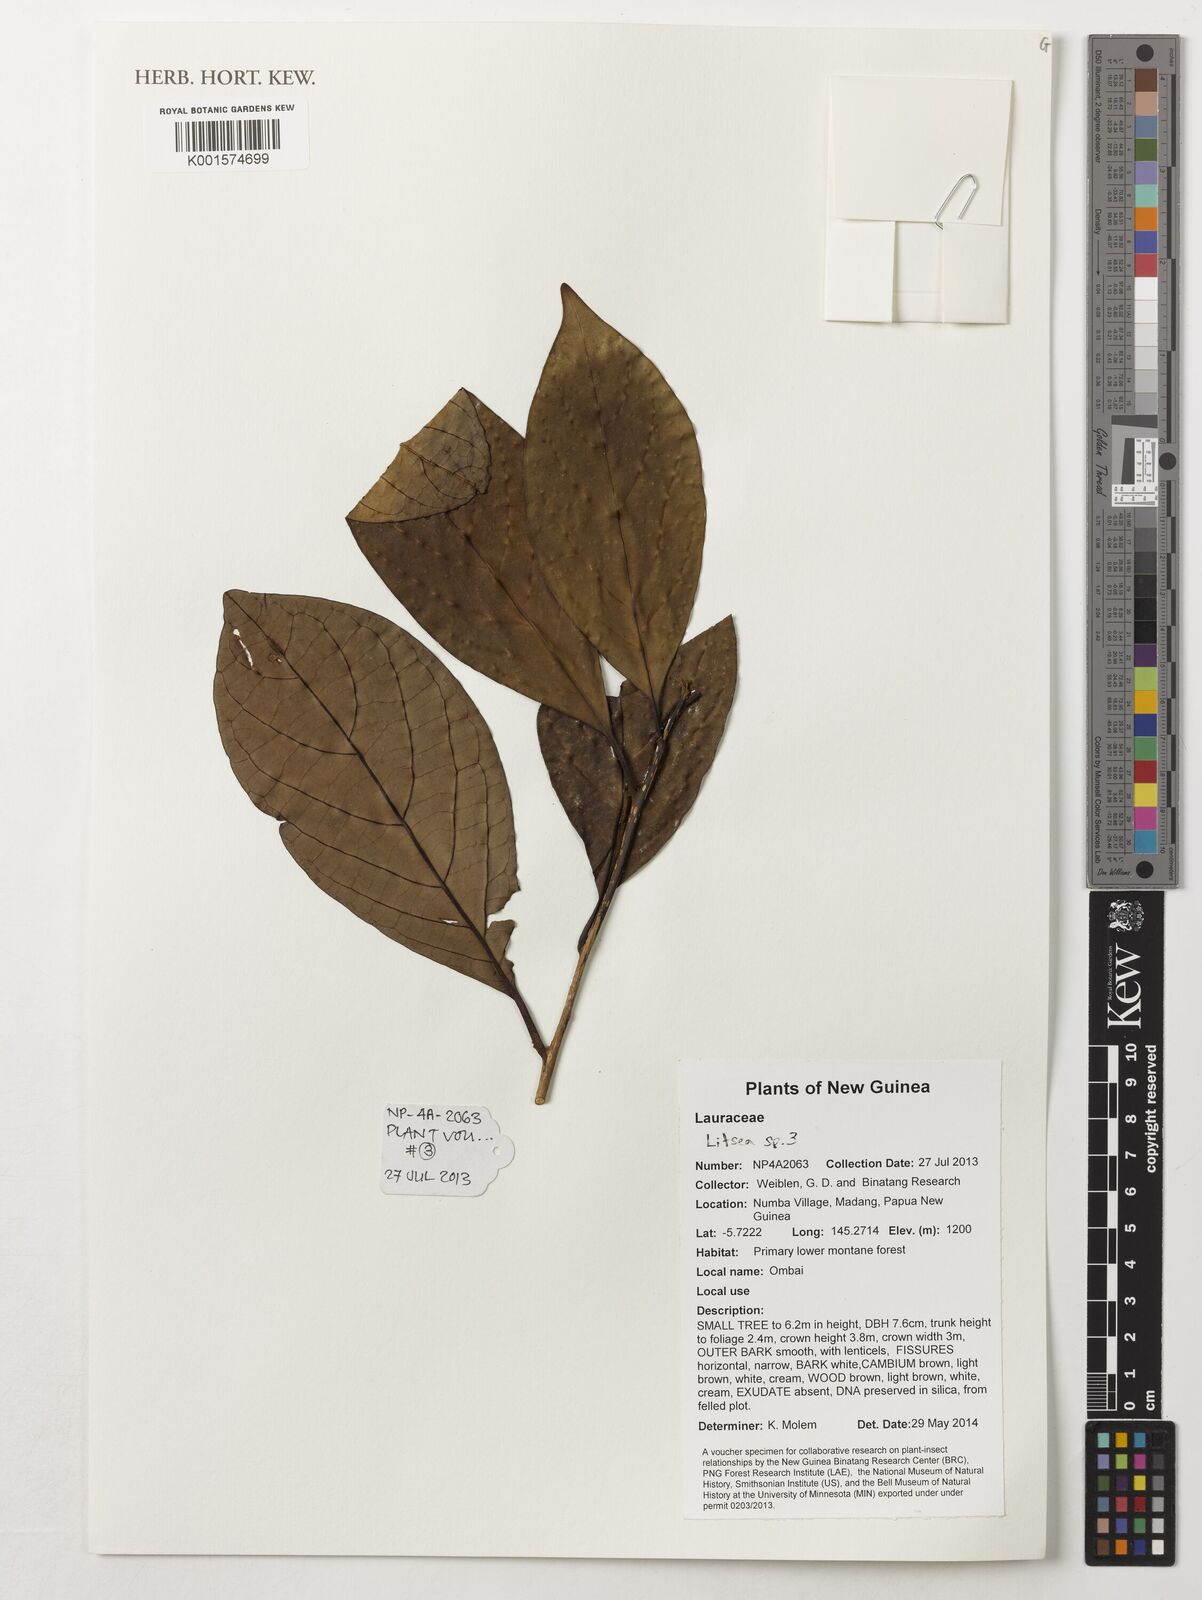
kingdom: Plantae
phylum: Tracheophyta
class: Magnoliopsida
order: Laurales
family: Lauraceae
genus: Litsea
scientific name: Litsea
